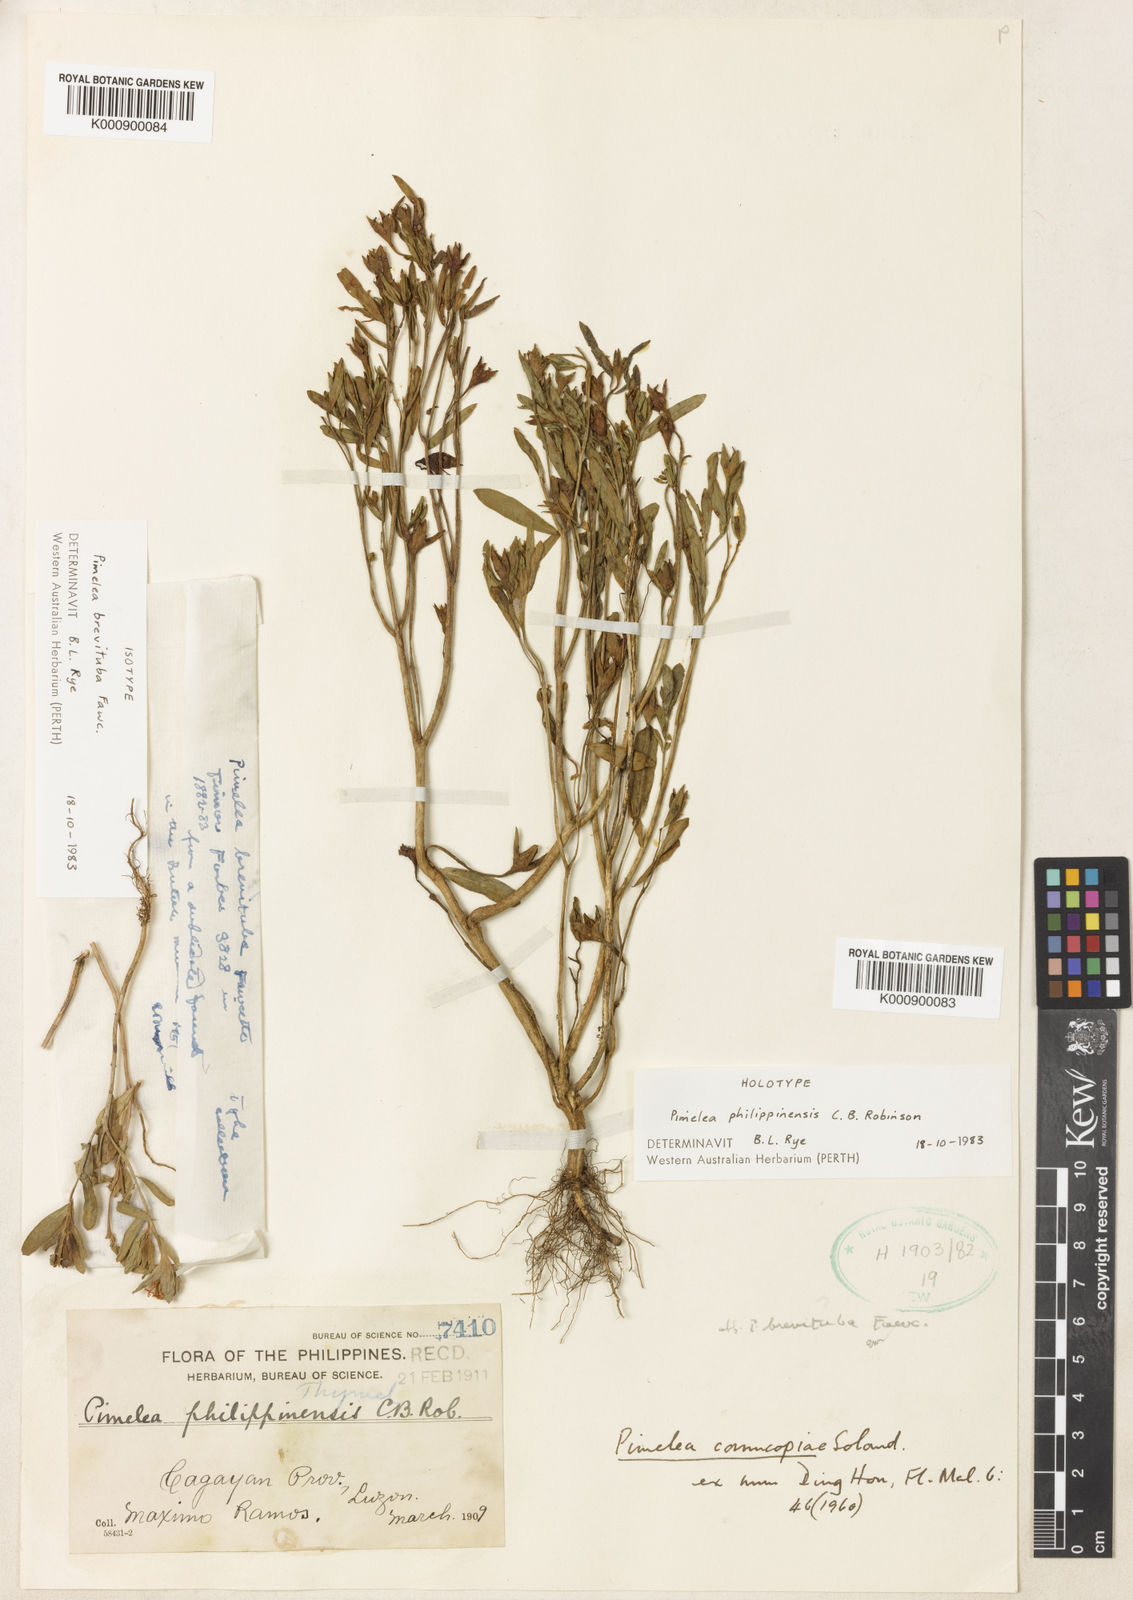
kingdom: Plantae
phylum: Tracheophyta
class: Magnoliopsida
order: Malvales
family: Thymelaeaceae
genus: Pimelea
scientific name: Pimelea cornucopiae
